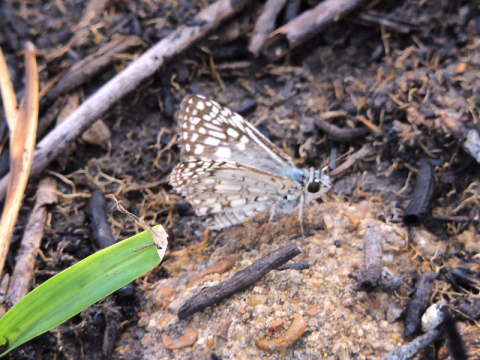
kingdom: Animalia
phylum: Arthropoda
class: Insecta
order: Lepidoptera
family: Hesperiidae
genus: Pyrgus
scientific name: Pyrgus oileus
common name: Tropical Checkered-Skipper
